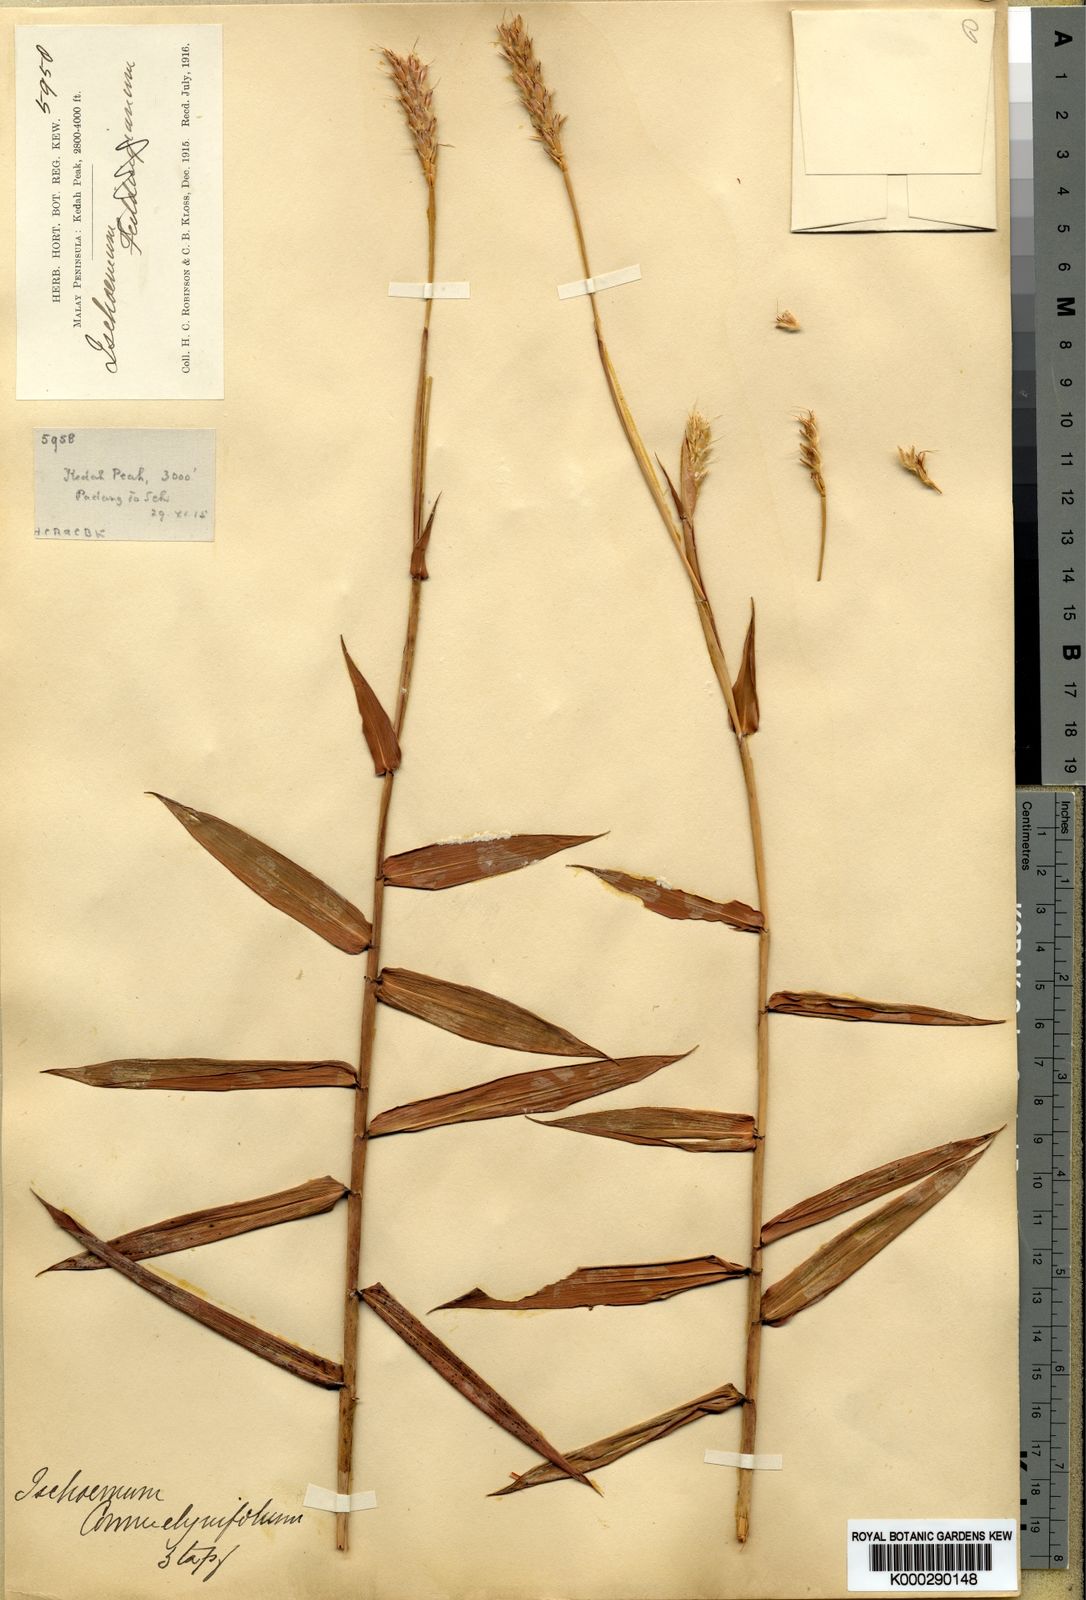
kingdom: Plantae
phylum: Tracheophyta
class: Liliopsida
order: Poales
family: Poaceae
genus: Ischaemum
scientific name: Ischaemum feildingianum
